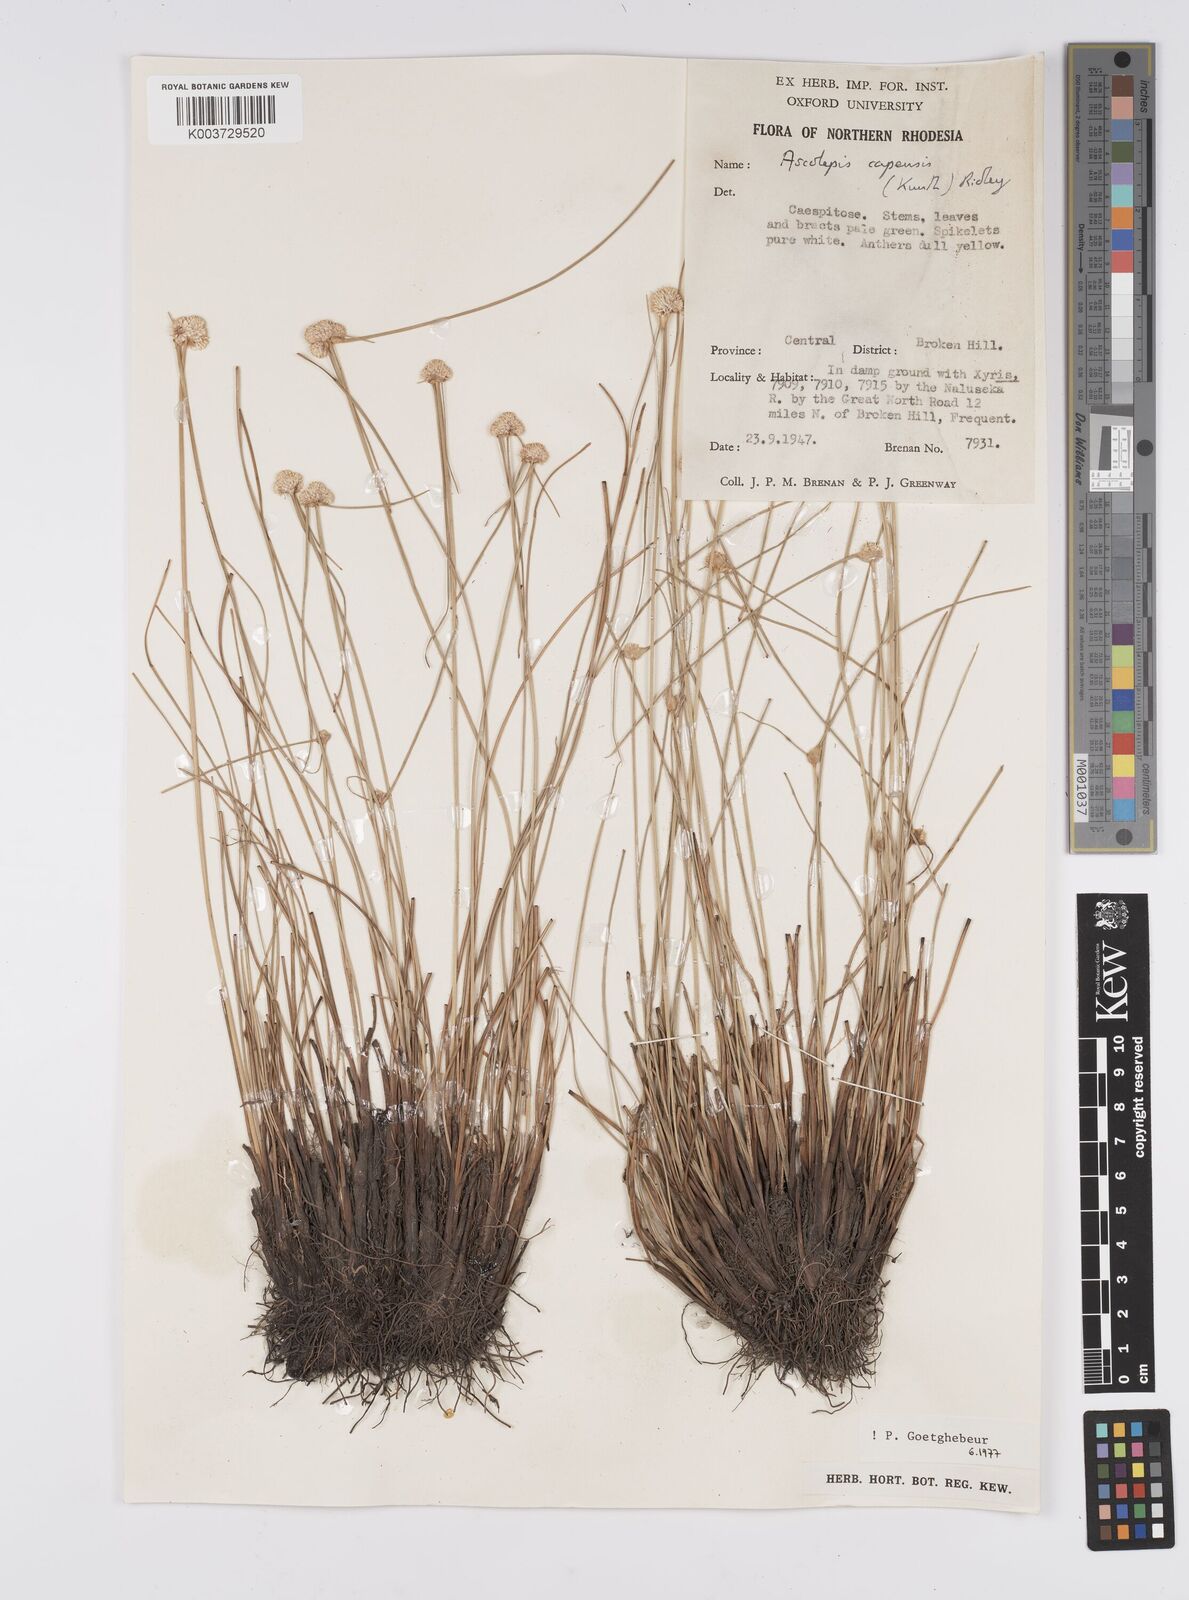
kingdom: Plantae
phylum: Tracheophyta
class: Liliopsida
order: Poales
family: Cyperaceae
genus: Cyperus
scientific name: Cyperus
